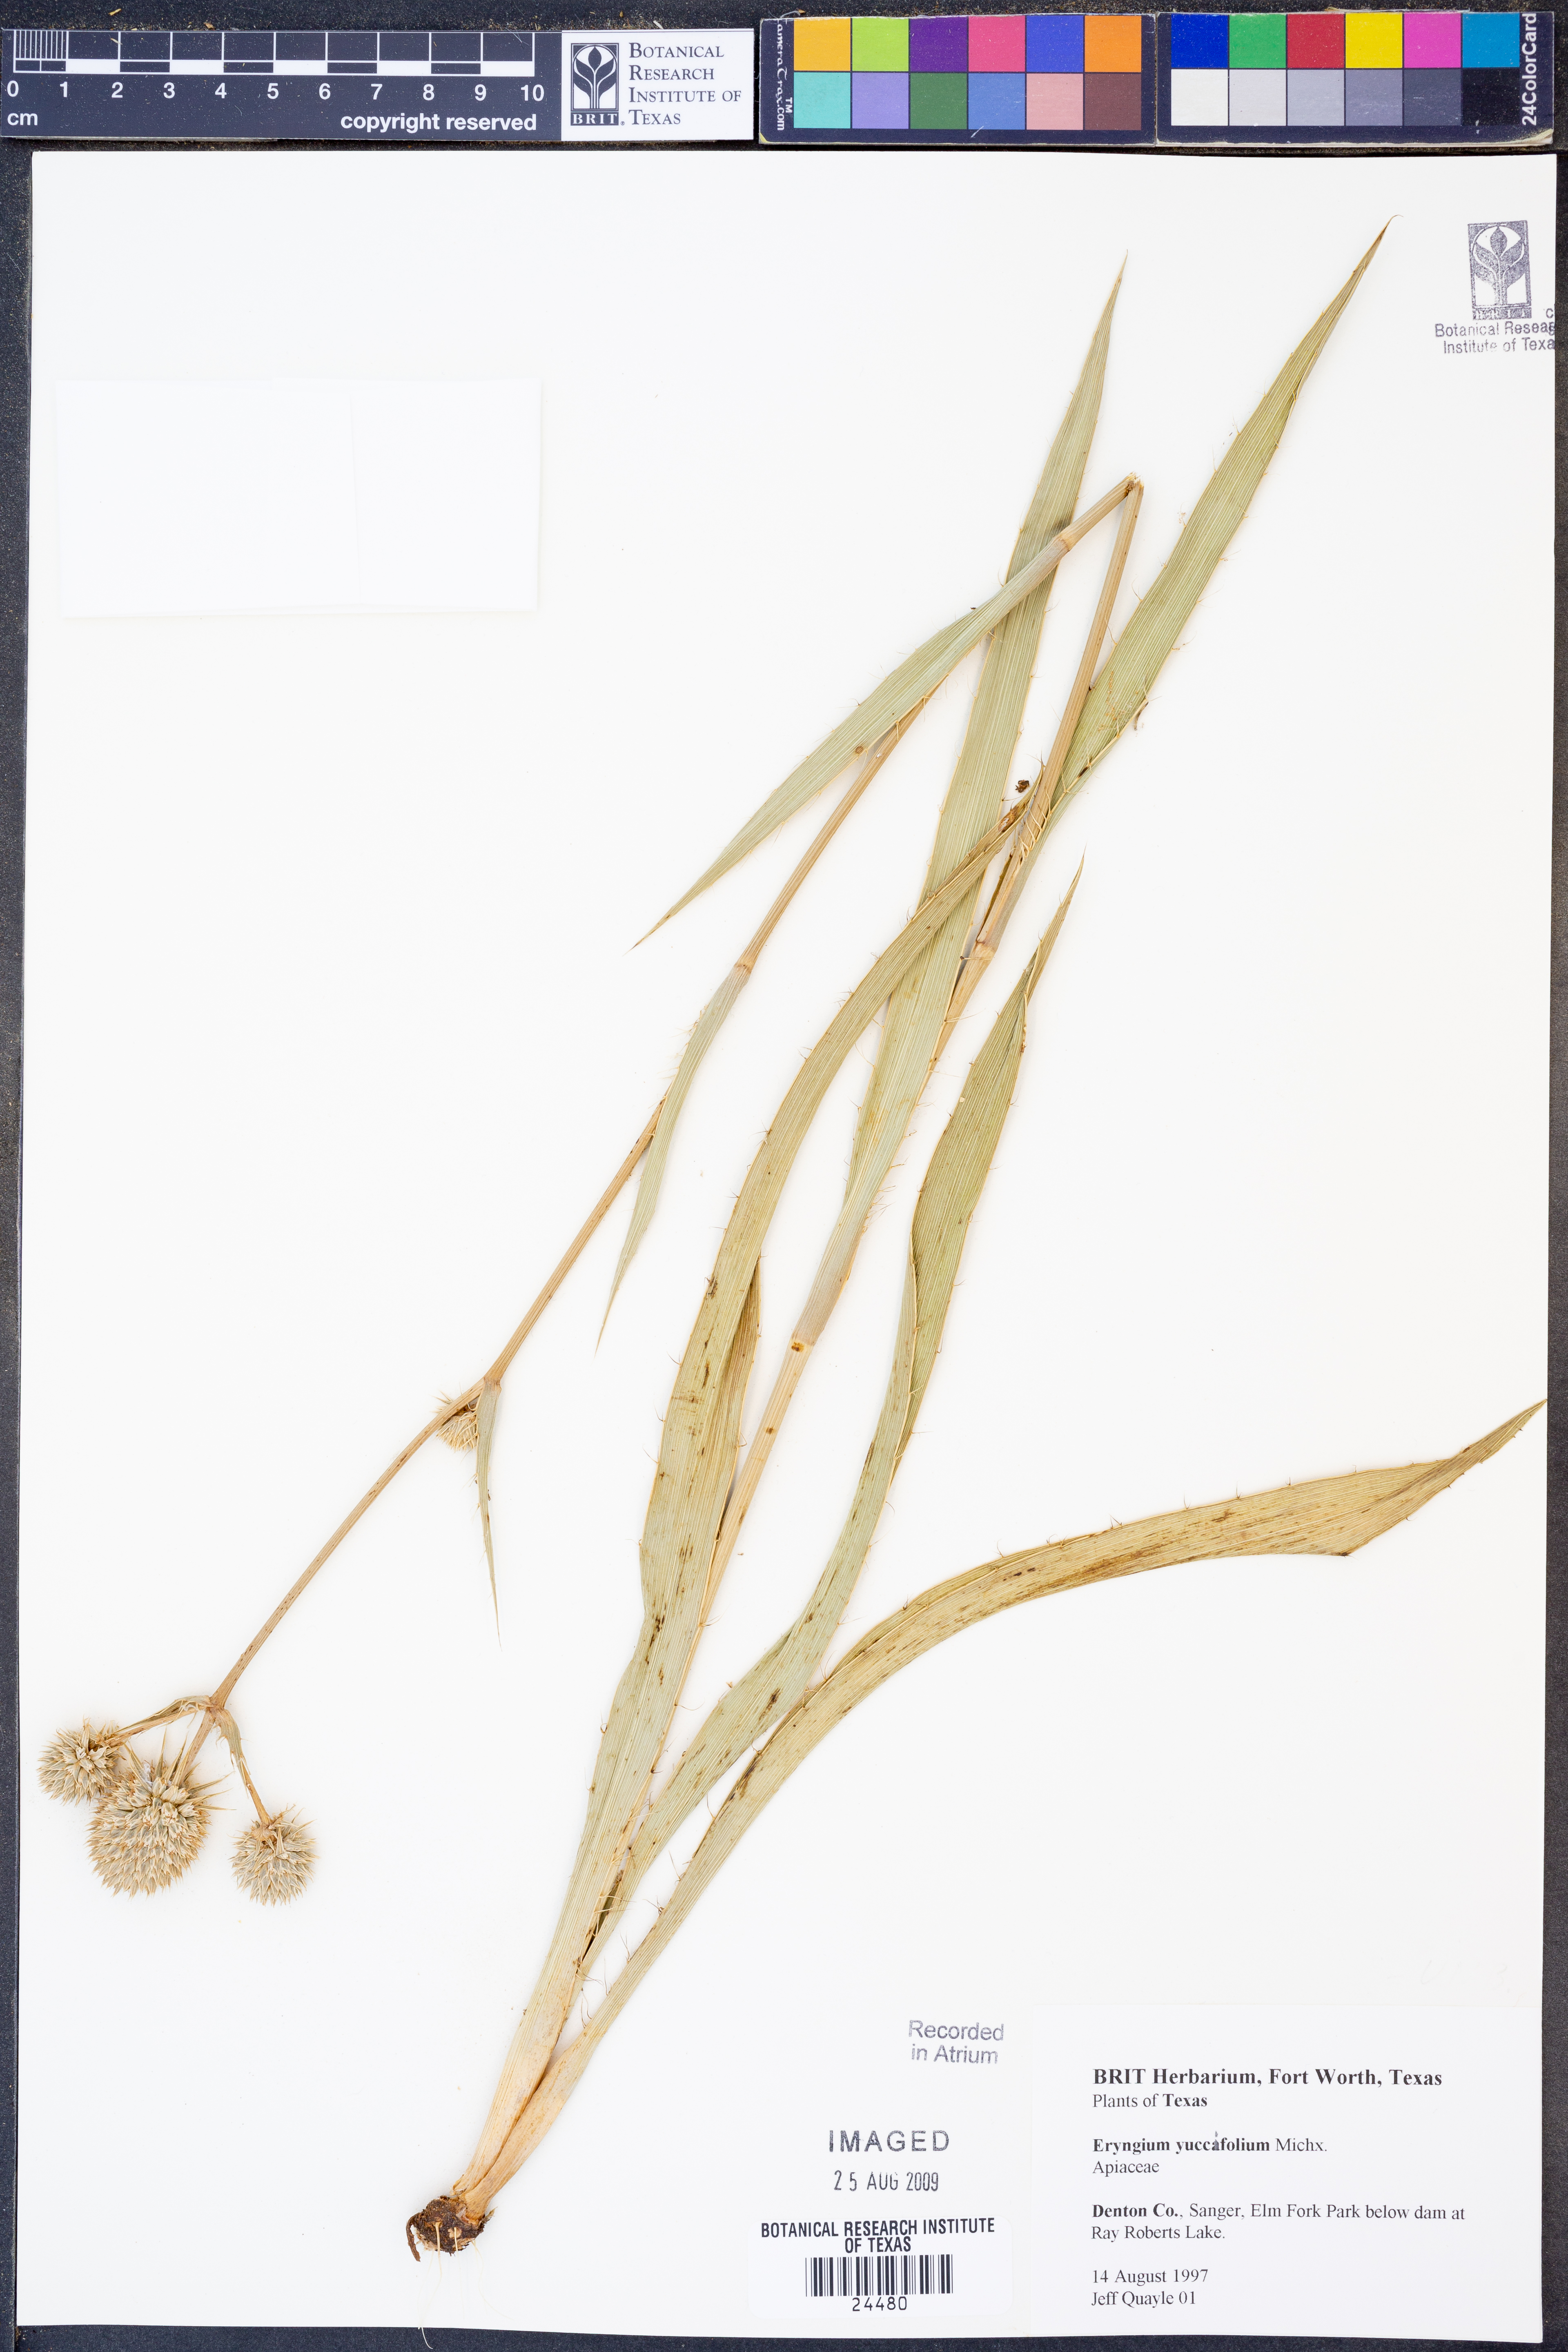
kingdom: Plantae
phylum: Tracheophyta
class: Magnoliopsida
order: Apiales
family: Apiaceae
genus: Eryngium
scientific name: Eryngium yuccifolium
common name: Button eryngo
